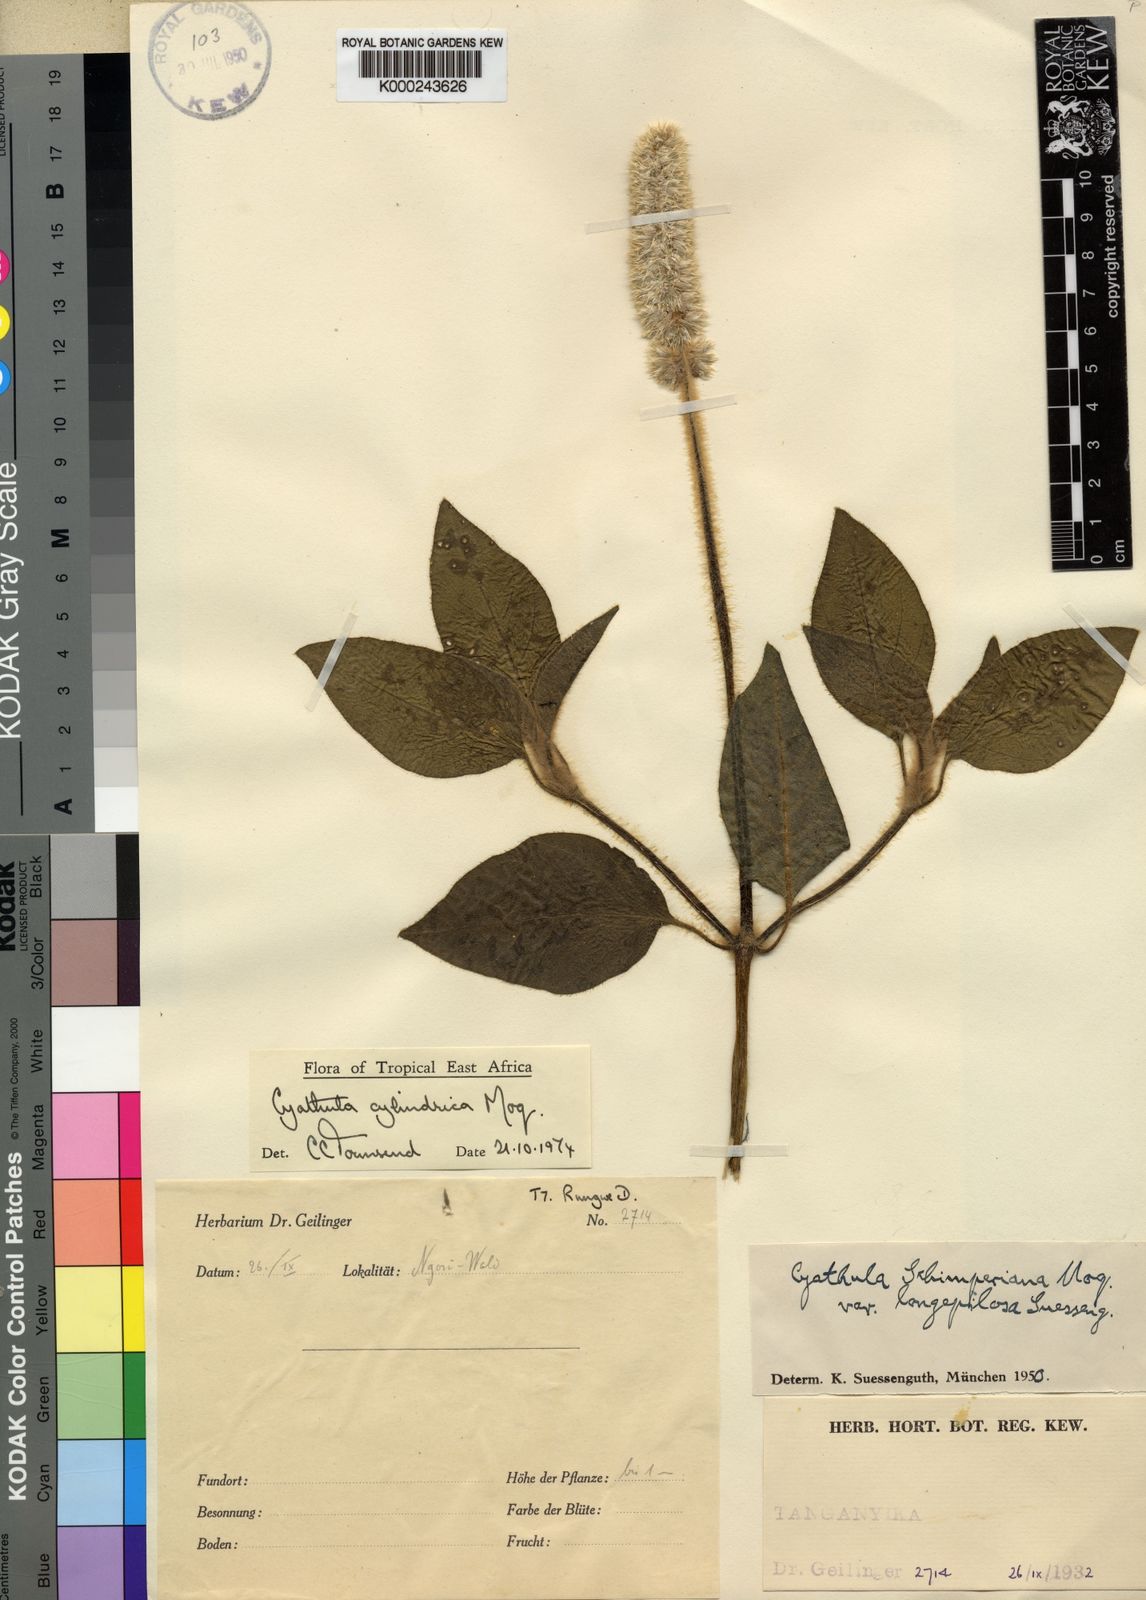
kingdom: Plantae
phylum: Tracheophyta
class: Magnoliopsida
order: Caryophyllales
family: Amaranthaceae
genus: Cyathula
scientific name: Cyathula cylindrica
